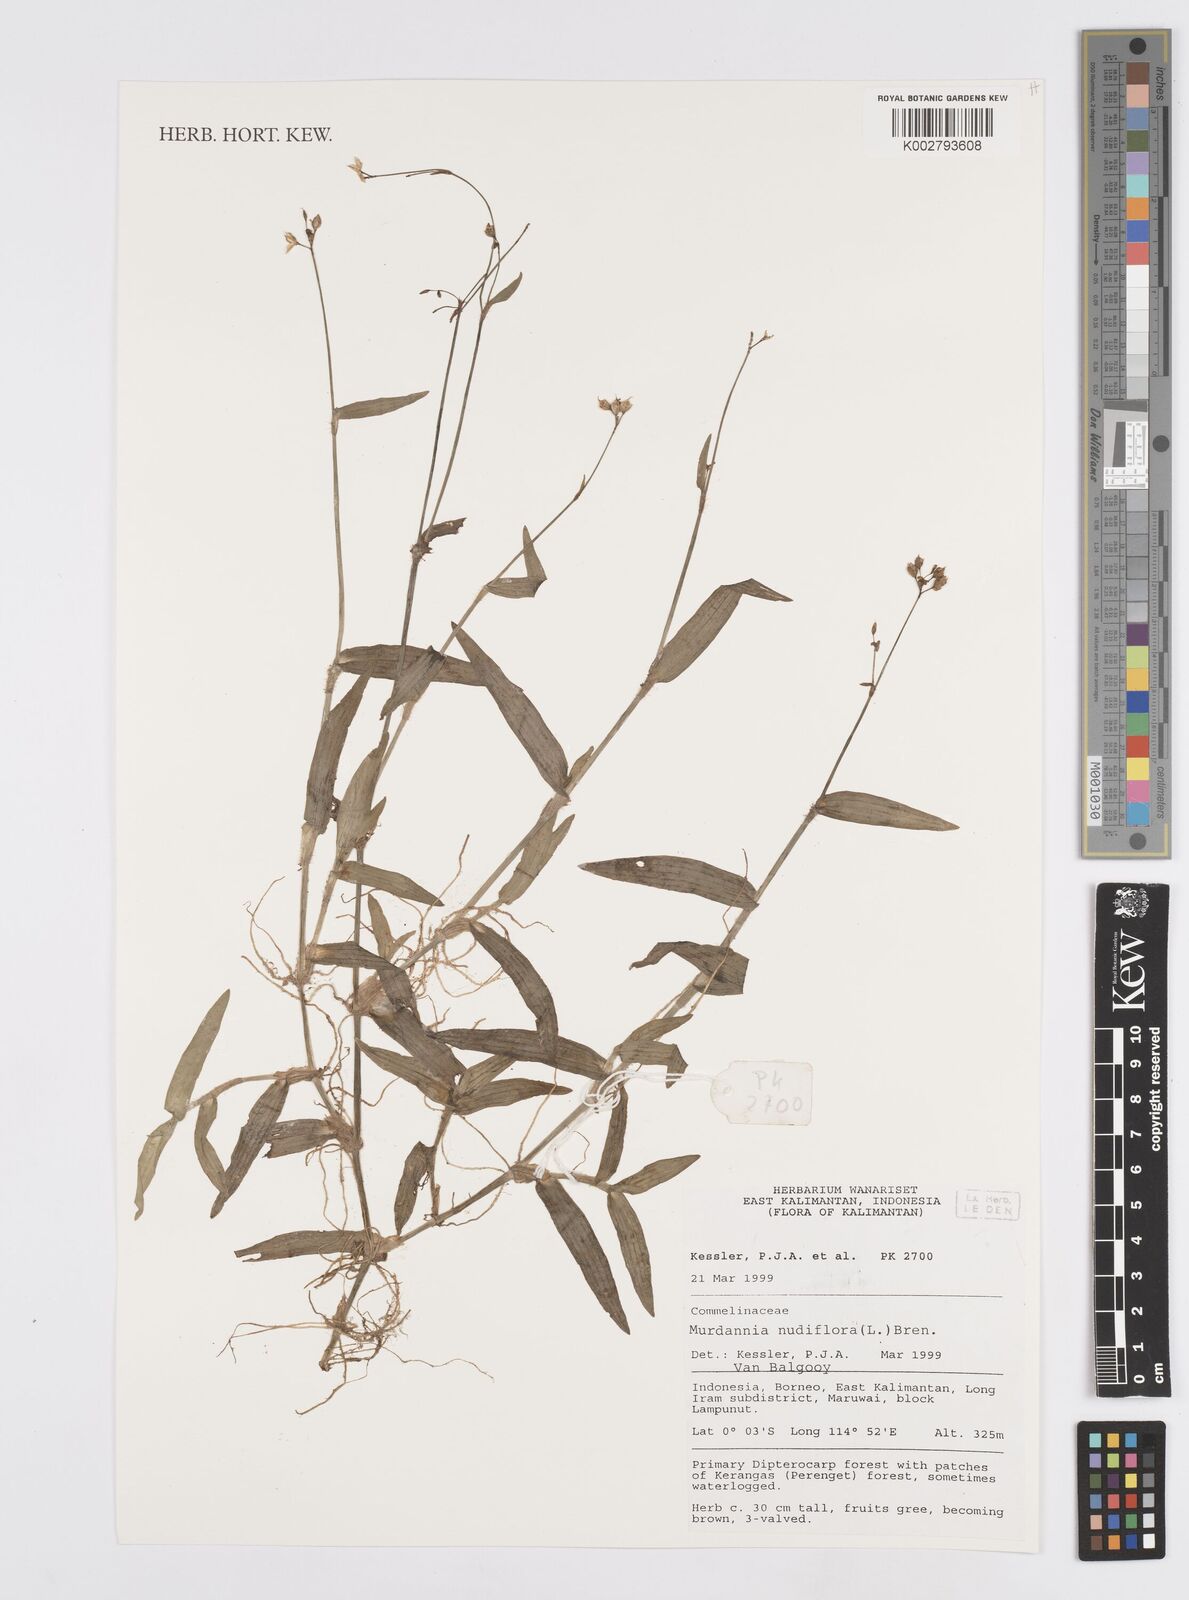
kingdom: Plantae
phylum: Tracheophyta
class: Liliopsida
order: Commelinales
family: Commelinaceae
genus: Murdannia
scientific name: Murdannia nudiflora
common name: Nakedstem dewflower
